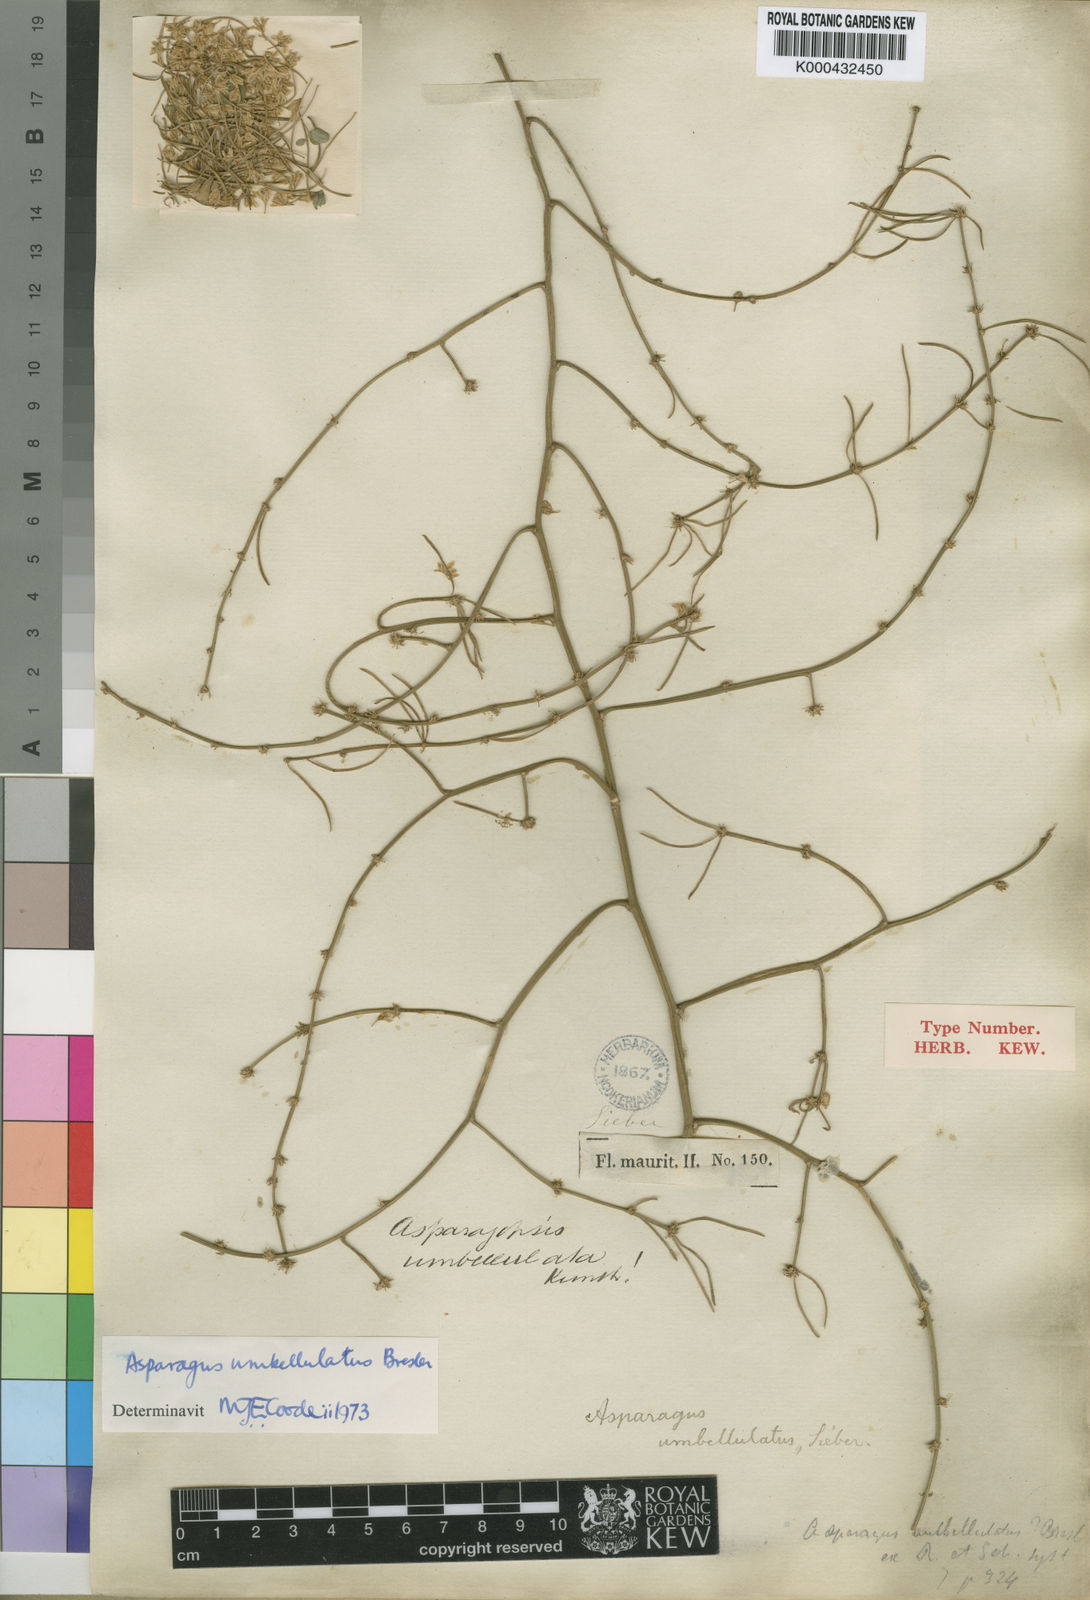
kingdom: Plantae
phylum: Tracheophyta
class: Liliopsida
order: Asparagales
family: Asparagaceae
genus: Asparagus
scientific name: Asparagus umbellatus
